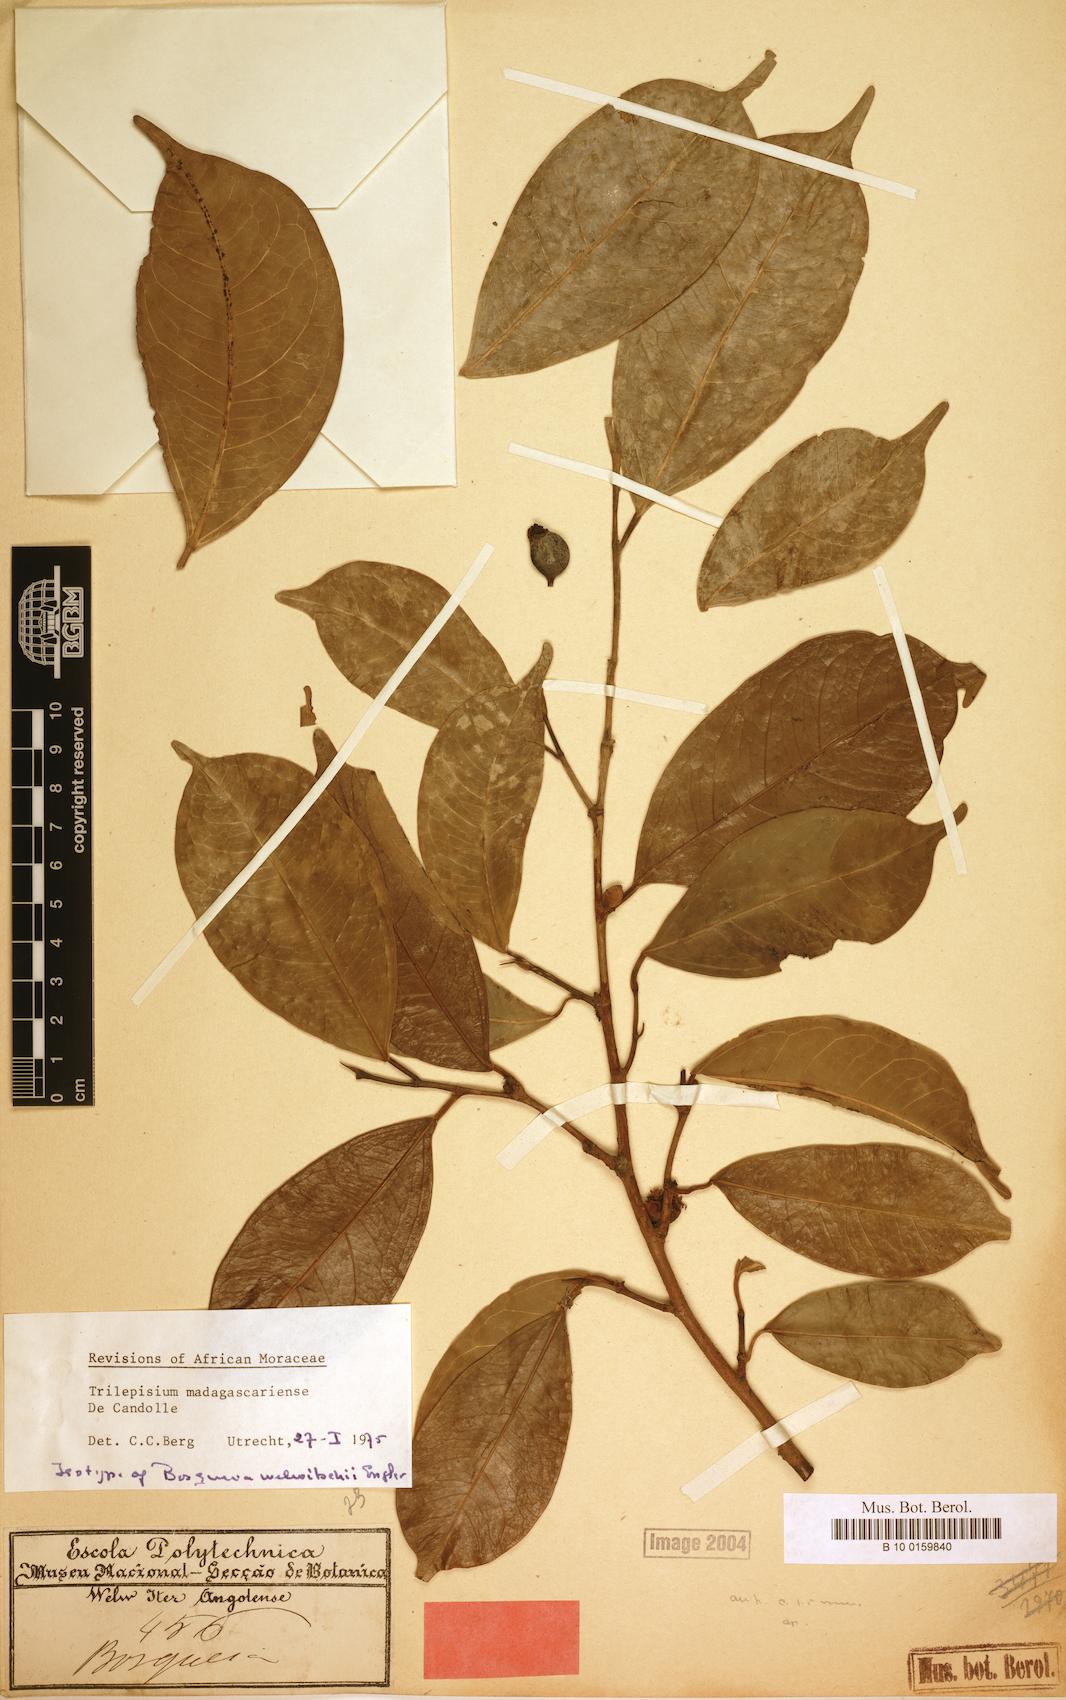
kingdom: Plantae
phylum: Tracheophyta
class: Magnoliopsida
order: Rosales
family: Moraceae
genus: Trilepisium
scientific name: Trilepisium madagascariense
